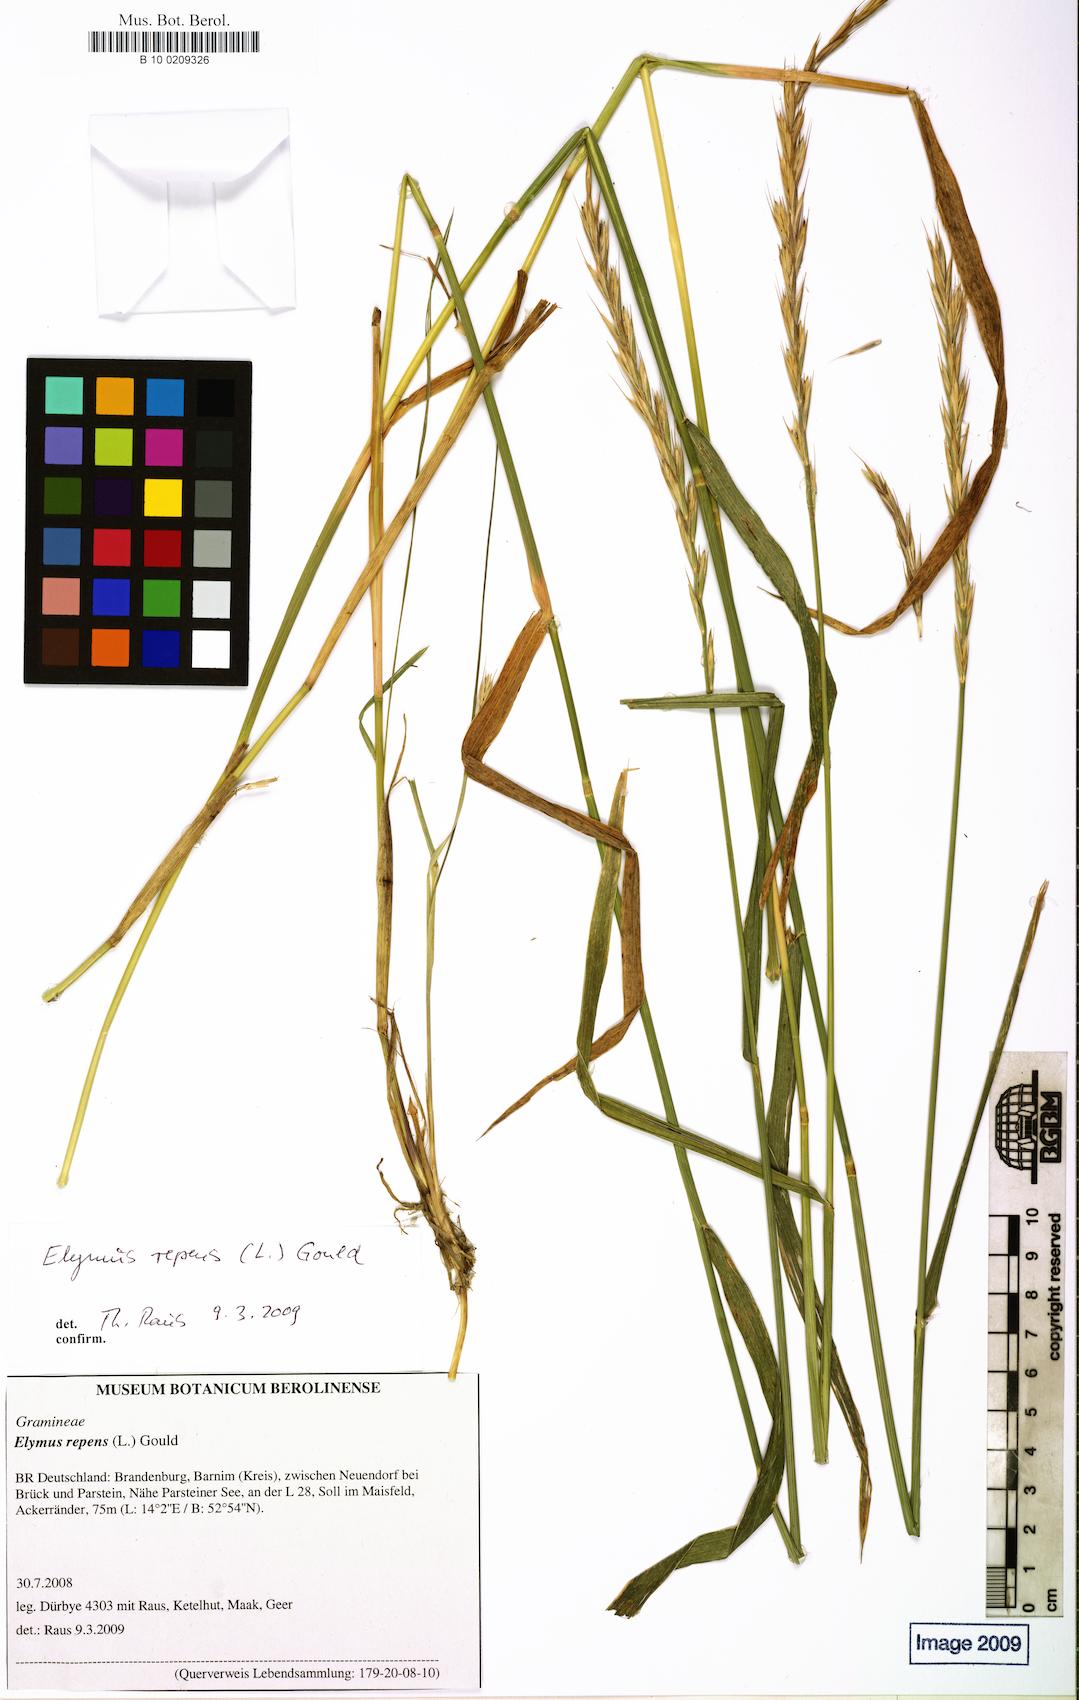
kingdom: Plantae
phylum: Tracheophyta
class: Liliopsida
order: Poales
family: Poaceae
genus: Elymus
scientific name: Elymus repens
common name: Quackgrass
